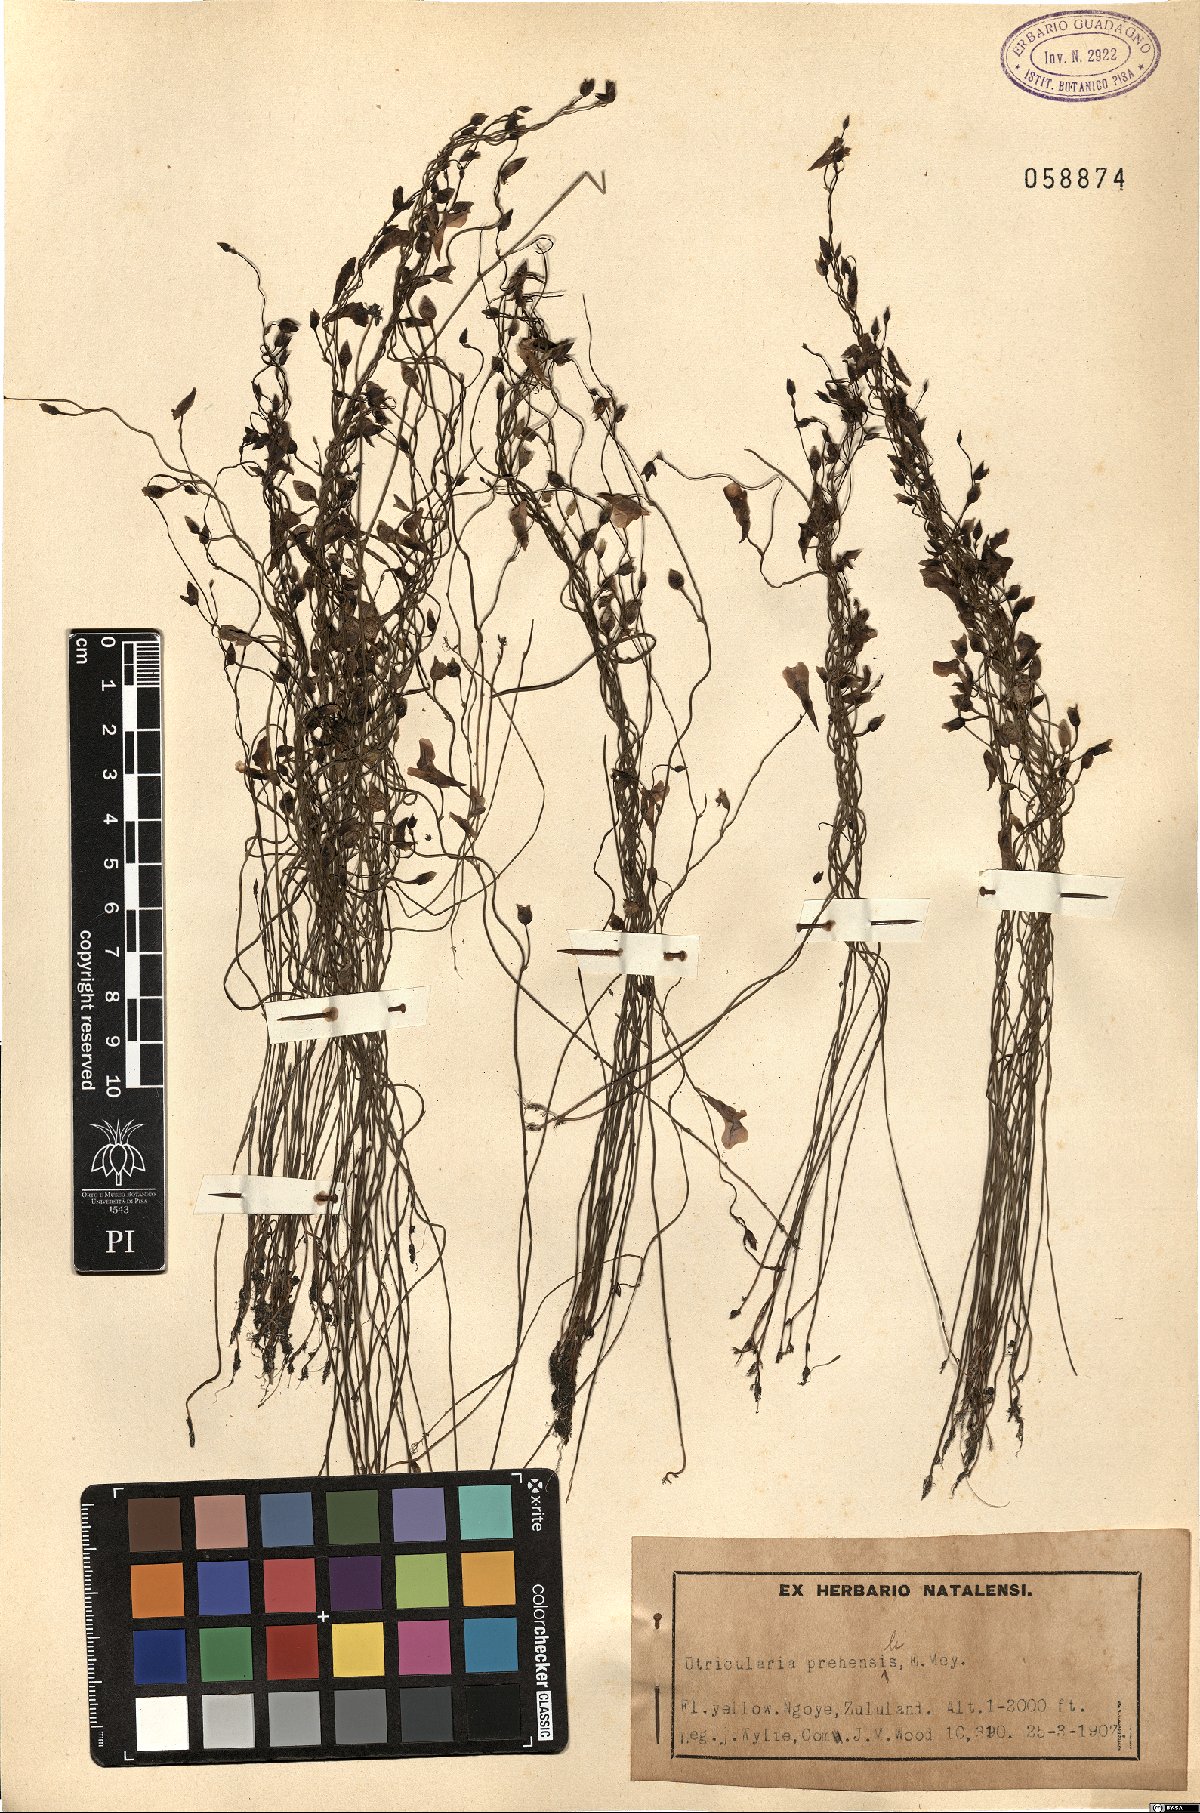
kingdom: Plantae
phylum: Tracheophyta
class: Magnoliopsida
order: Lamiales
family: Lentibulariaceae
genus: Utricularia
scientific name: Utricularia prehensilis
